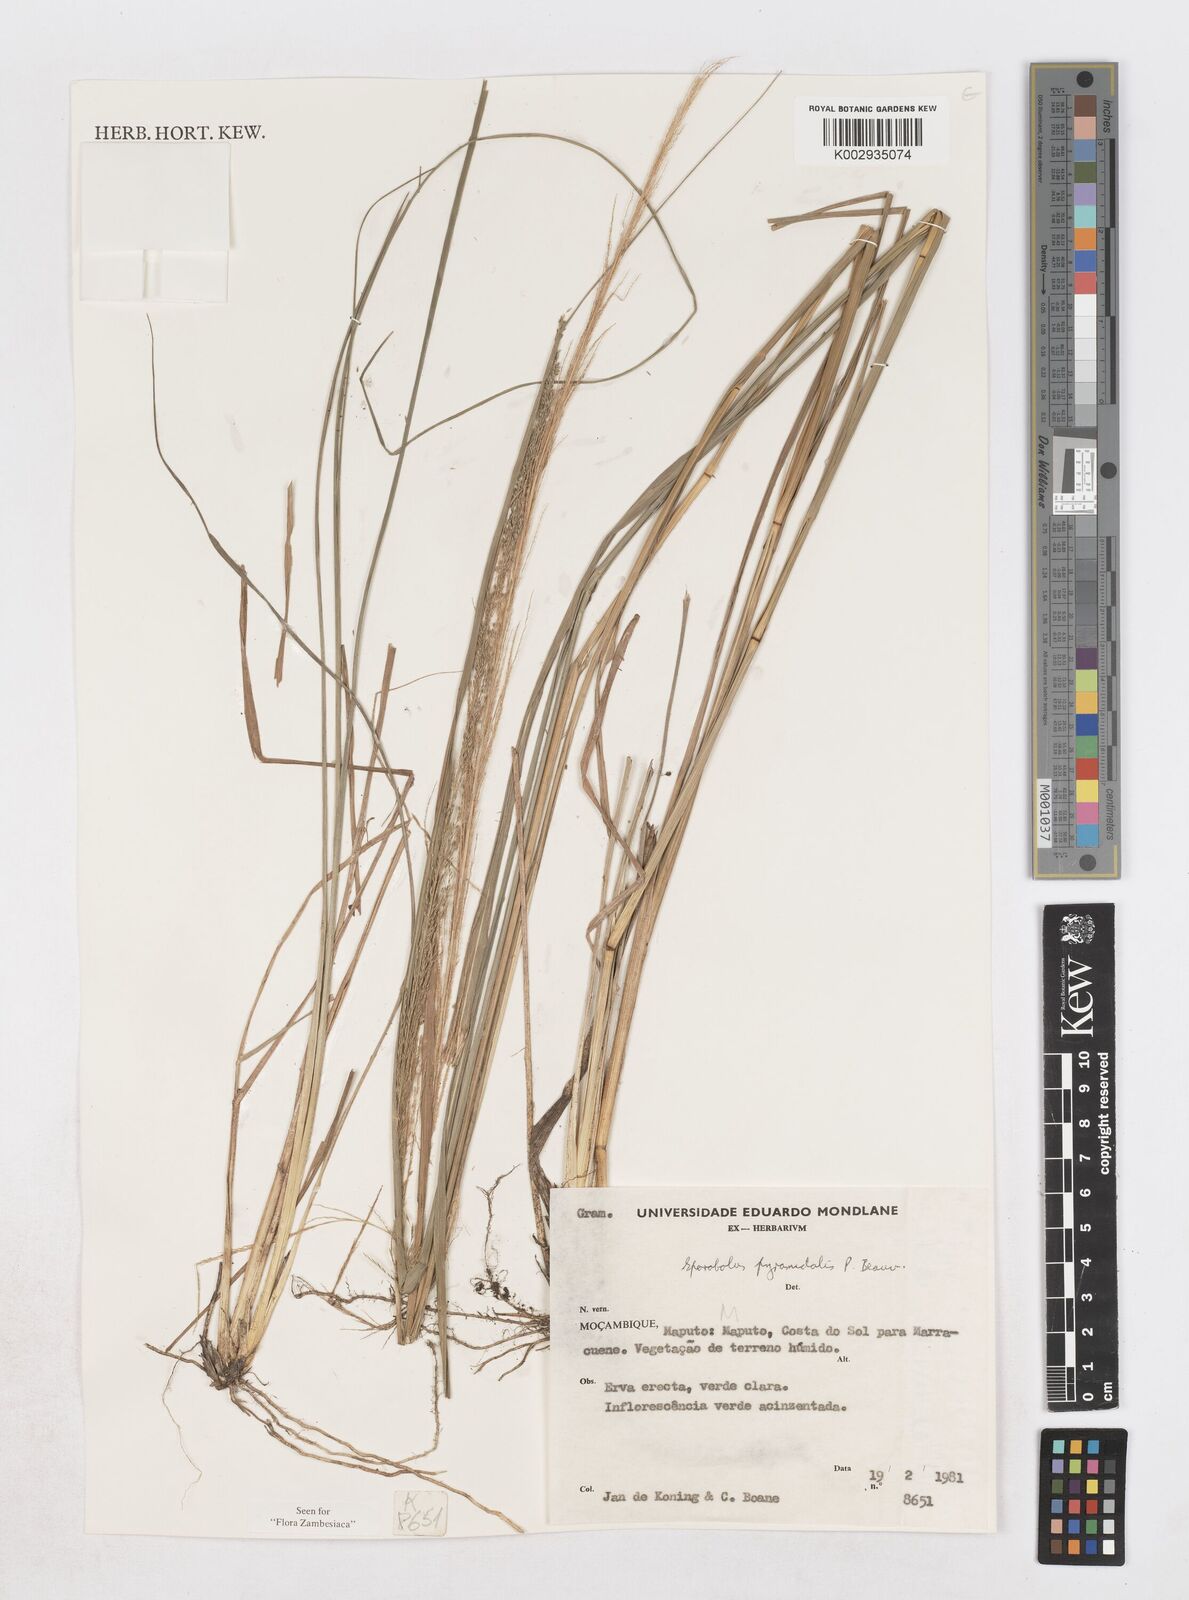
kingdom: Plantae
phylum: Tracheophyta
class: Liliopsida
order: Poales
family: Poaceae
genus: Sporobolus
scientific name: Sporobolus pyramidalis
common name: West indian dropseed
